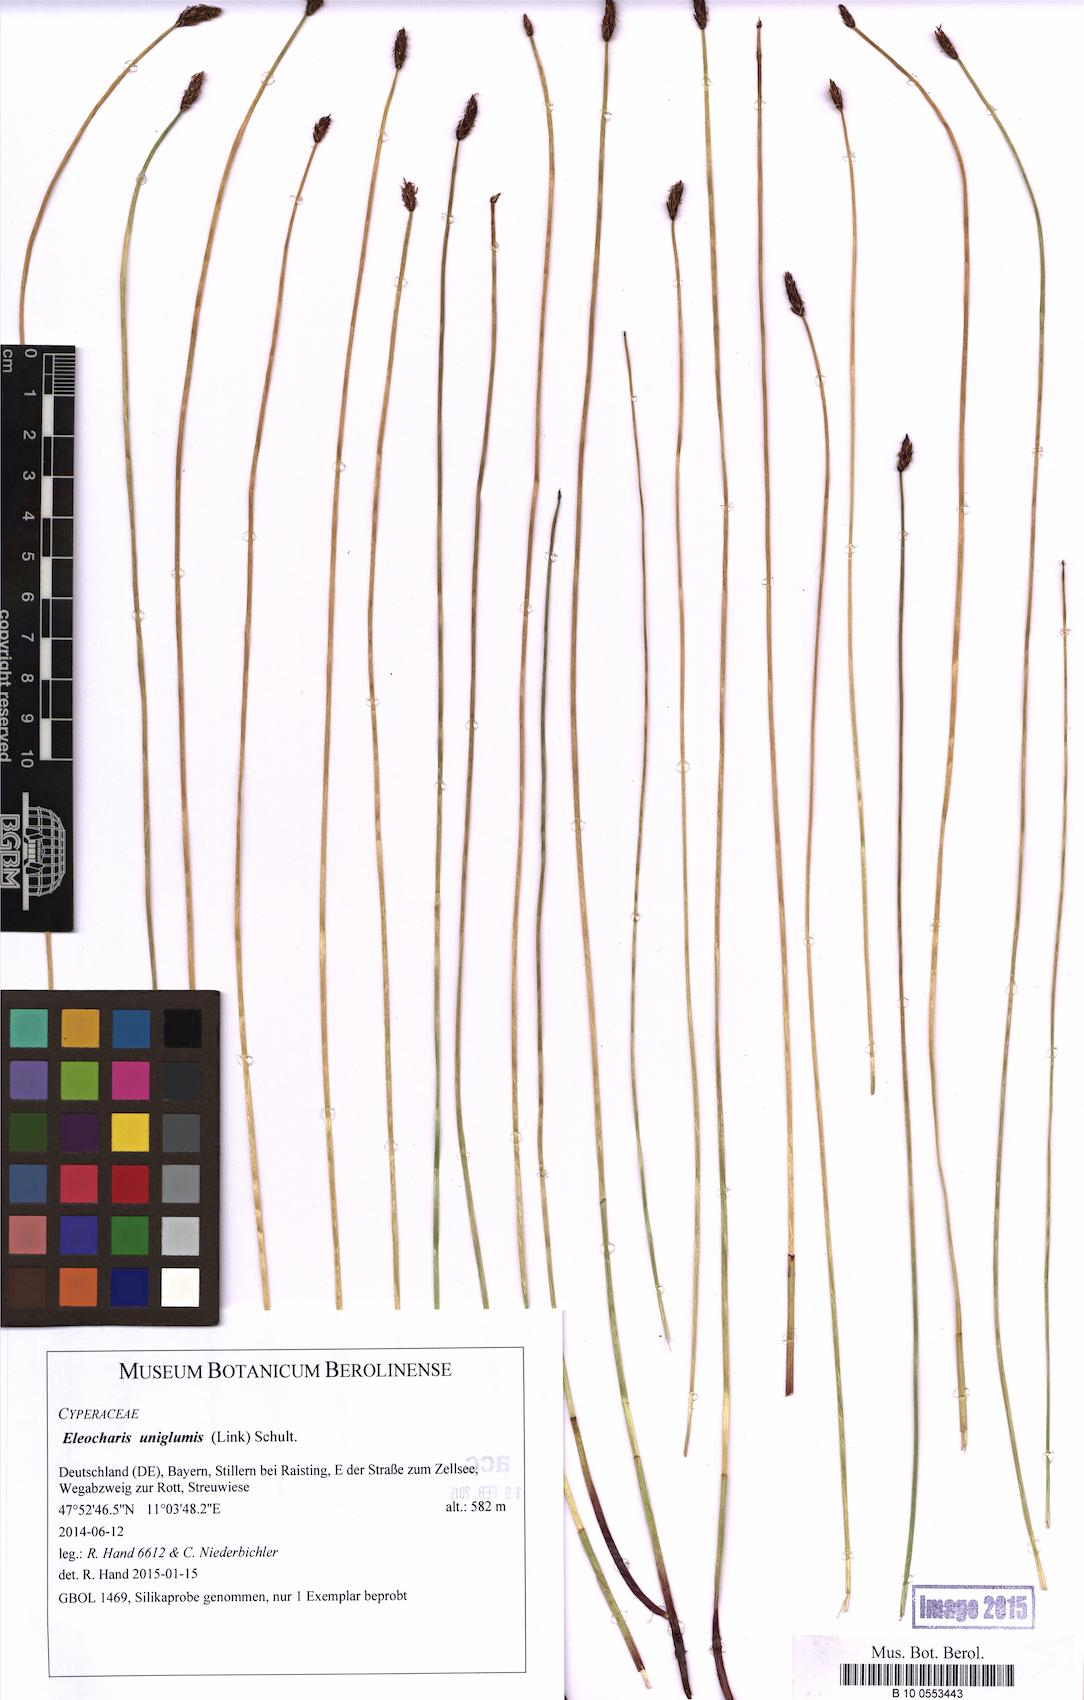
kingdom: Plantae
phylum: Tracheophyta
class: Liliopsida
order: Poales
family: Cyperaceae
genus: Eleocharis
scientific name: Eleocharis uniglumis
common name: Slender spike-rush
